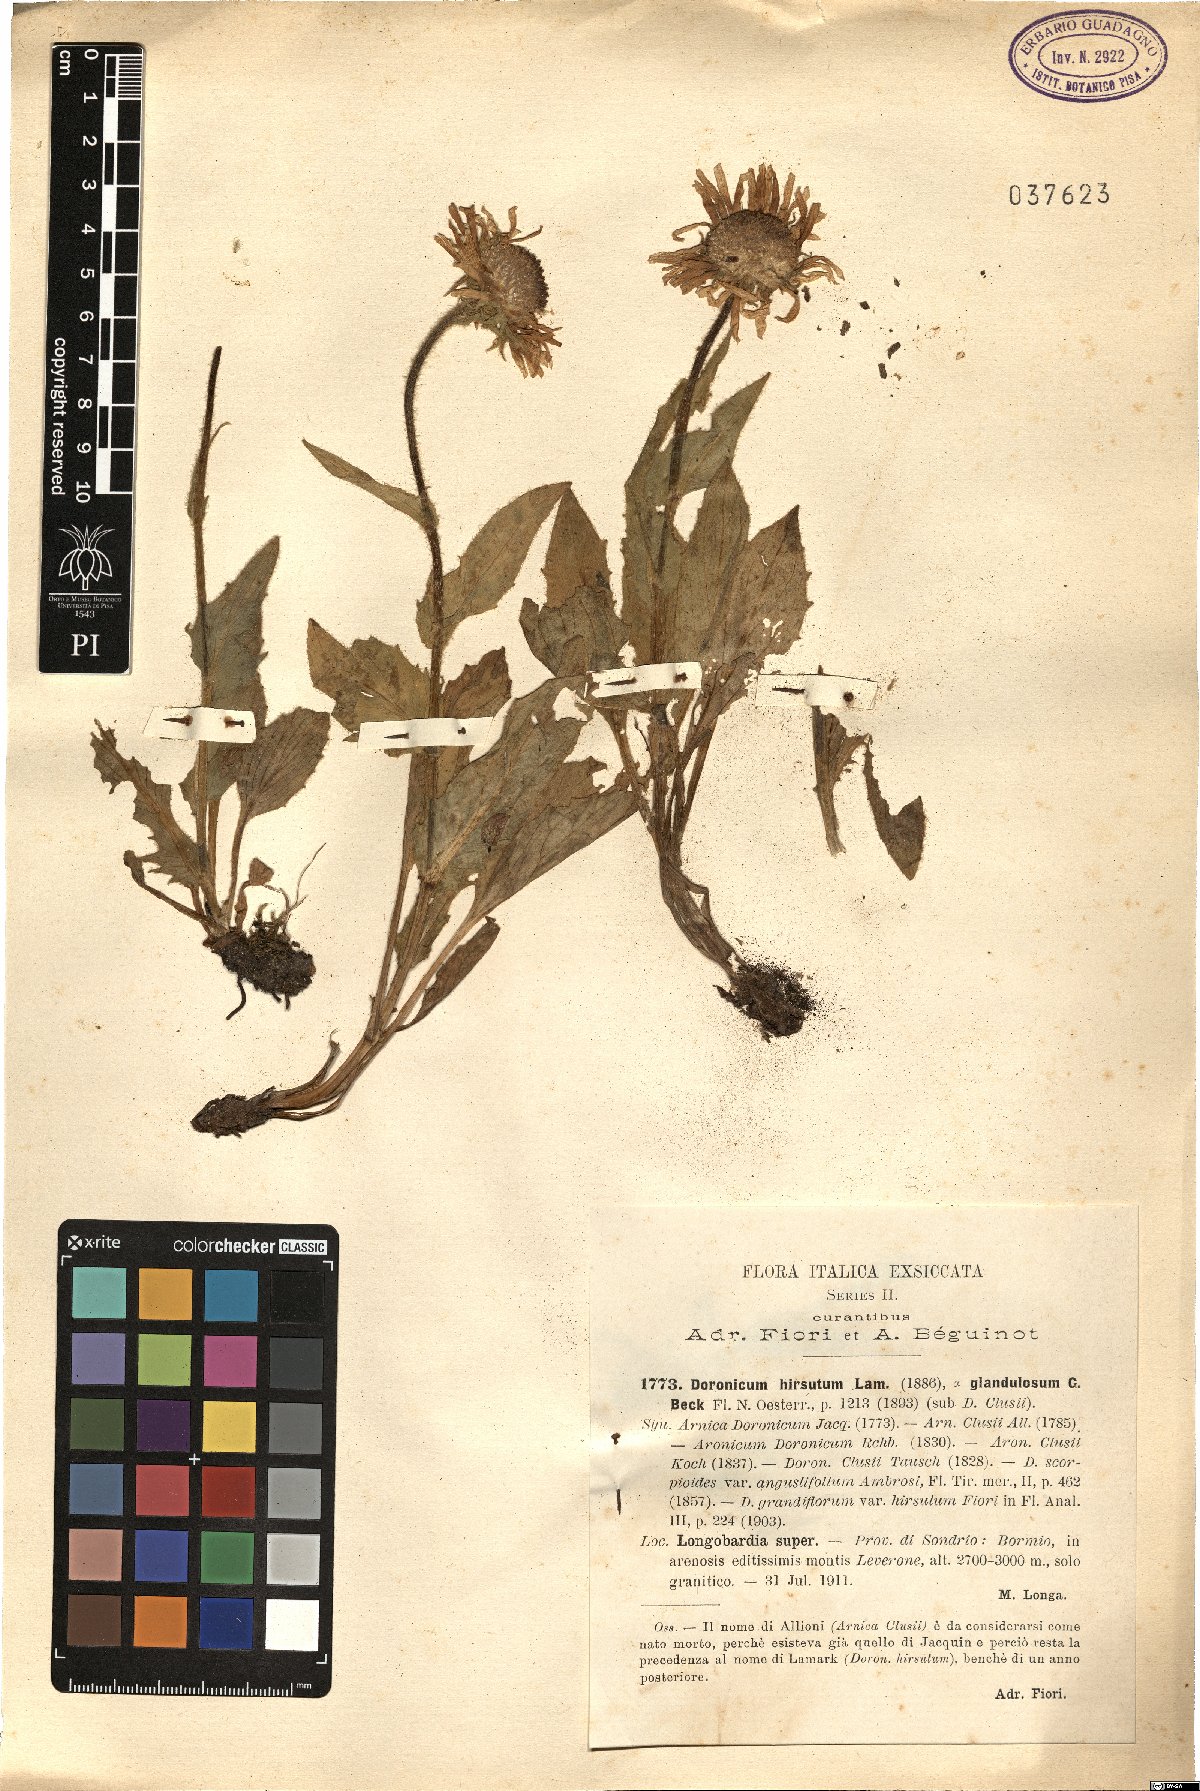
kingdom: Plantae
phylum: Tracheophyta
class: Magnoliopsida
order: Asterales
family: Asteraceae
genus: Doronicum
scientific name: Doronicum clusii
